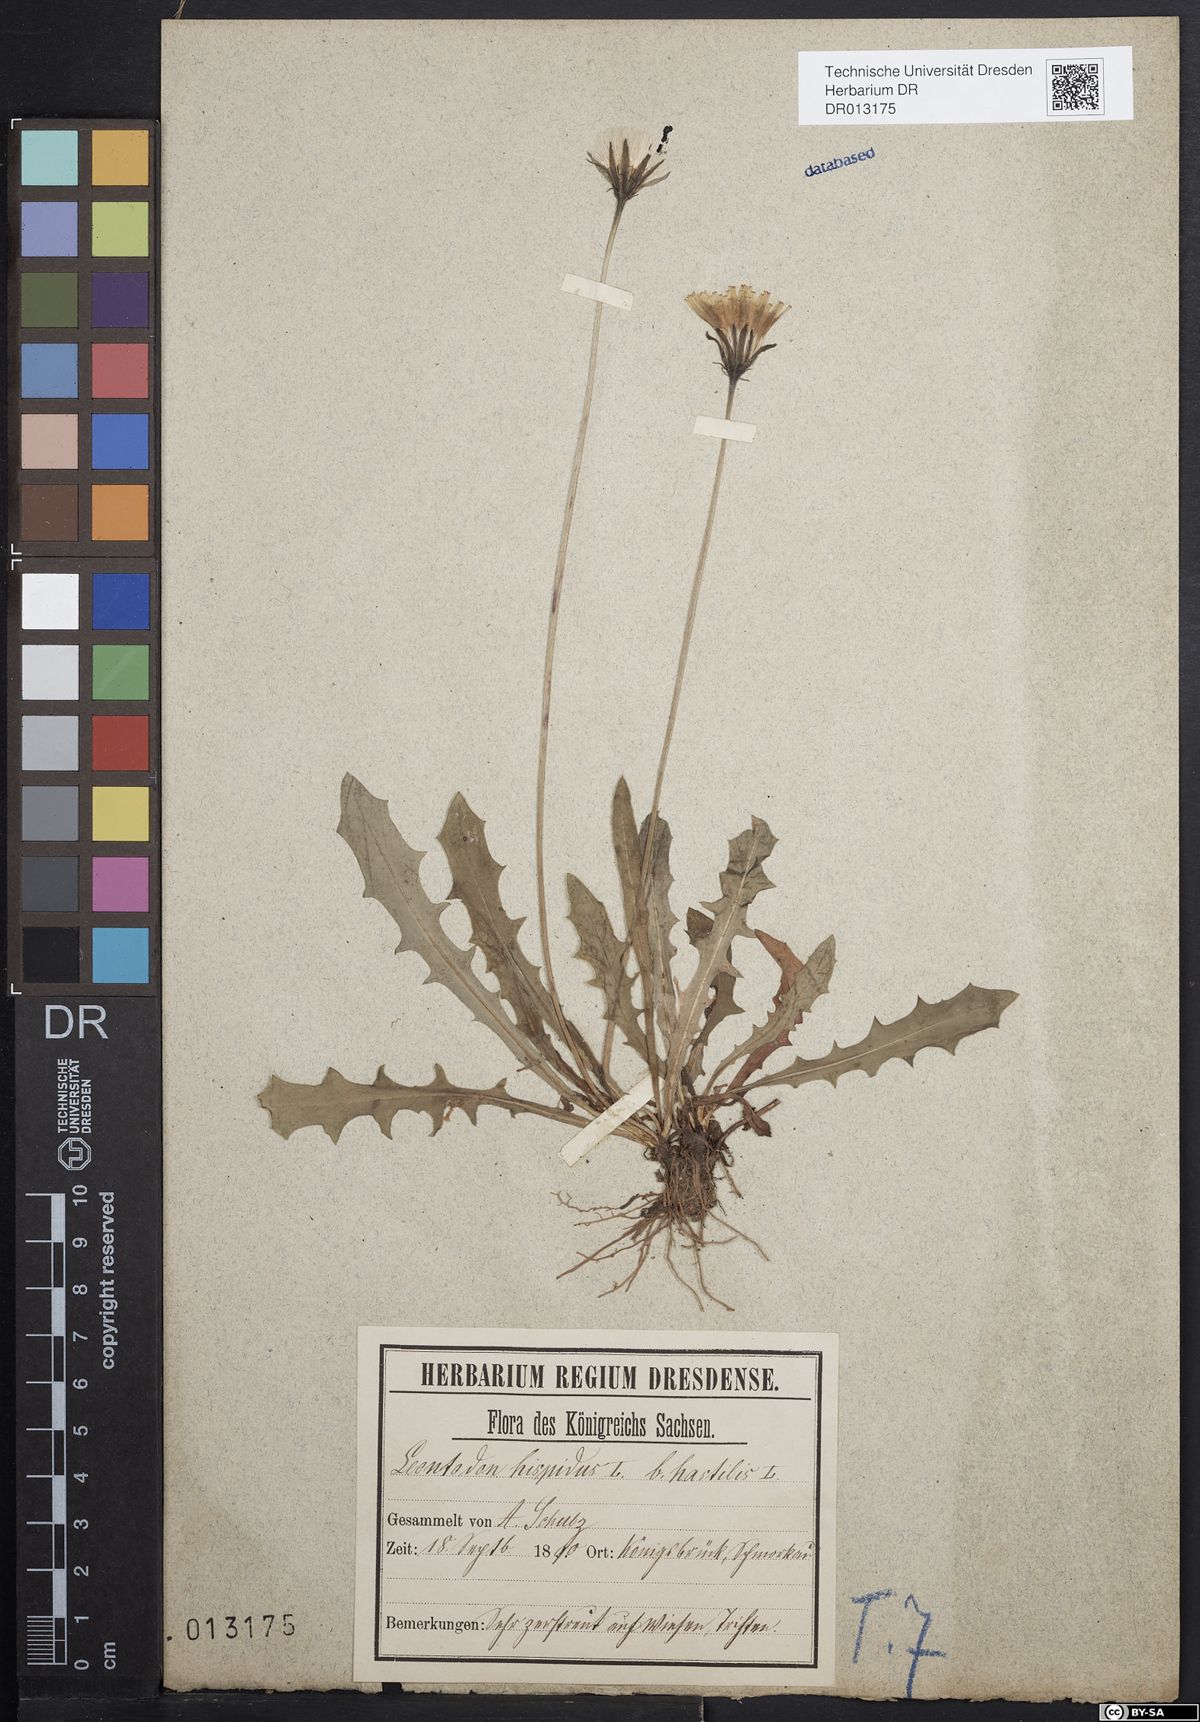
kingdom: Plantae
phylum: Tracheophyta
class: Magnoliopsida
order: Asterales
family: Asteraceae
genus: Leontodon
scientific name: Leontodon hispidus
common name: Rough hawkbit
